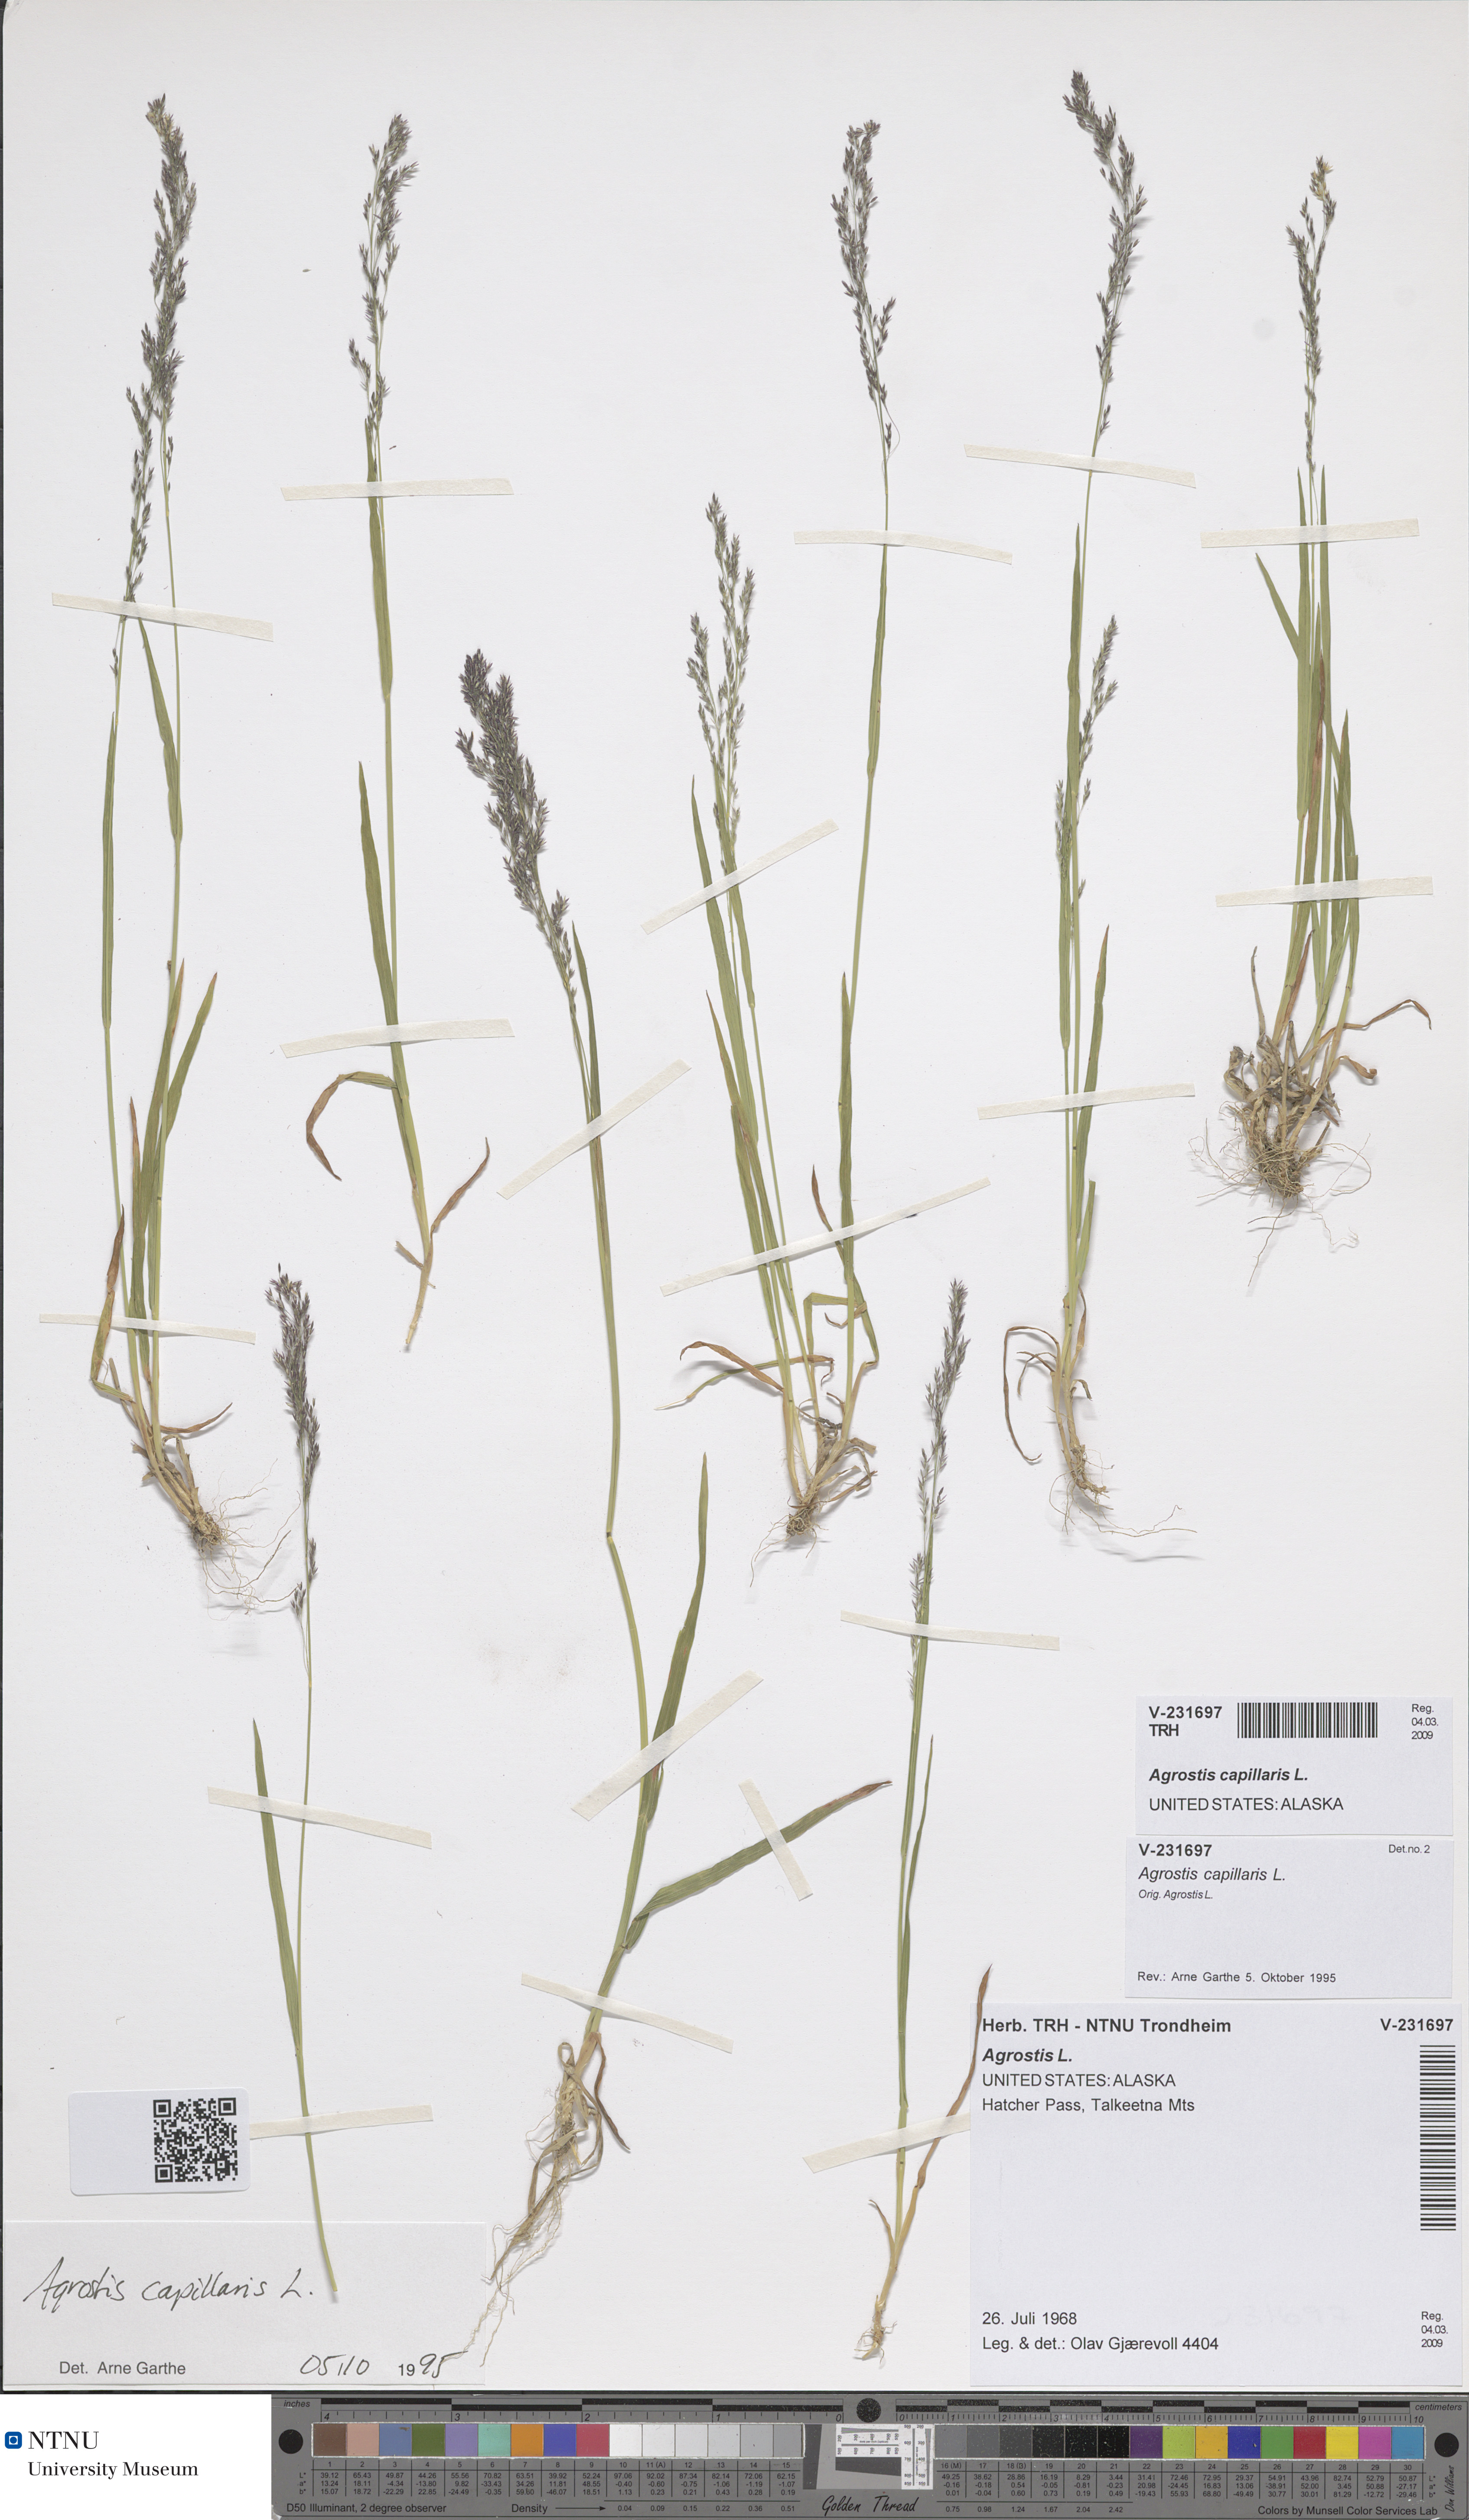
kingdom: Plantae
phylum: Tracheophyta
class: Liliopsida
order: Poales
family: Poaceae
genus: Agrostis
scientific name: Agrostis capillaris
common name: Colonial bentgrass
